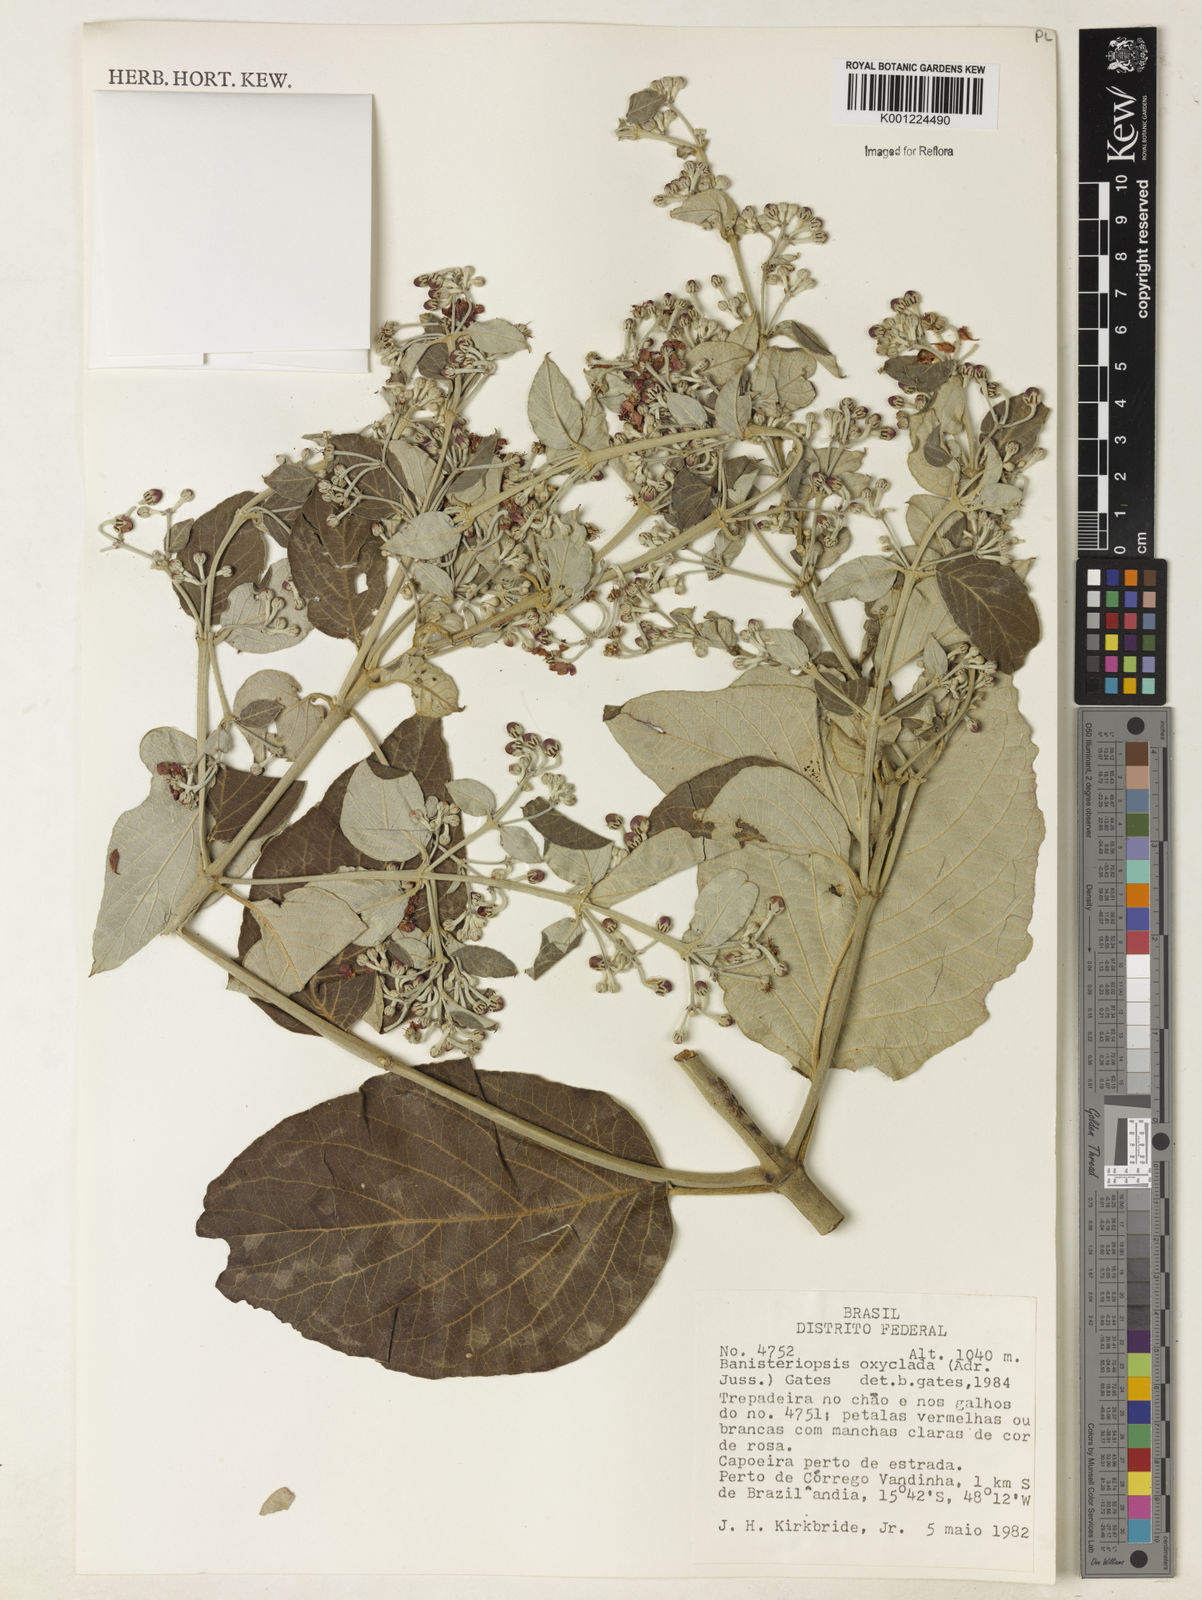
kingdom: Plantae
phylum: Tracheophyta
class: Magnoliopsida
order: Malpighiales
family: Malpighiaceae
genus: Banisteriopsis
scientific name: Banisteriopsis oxyclada
